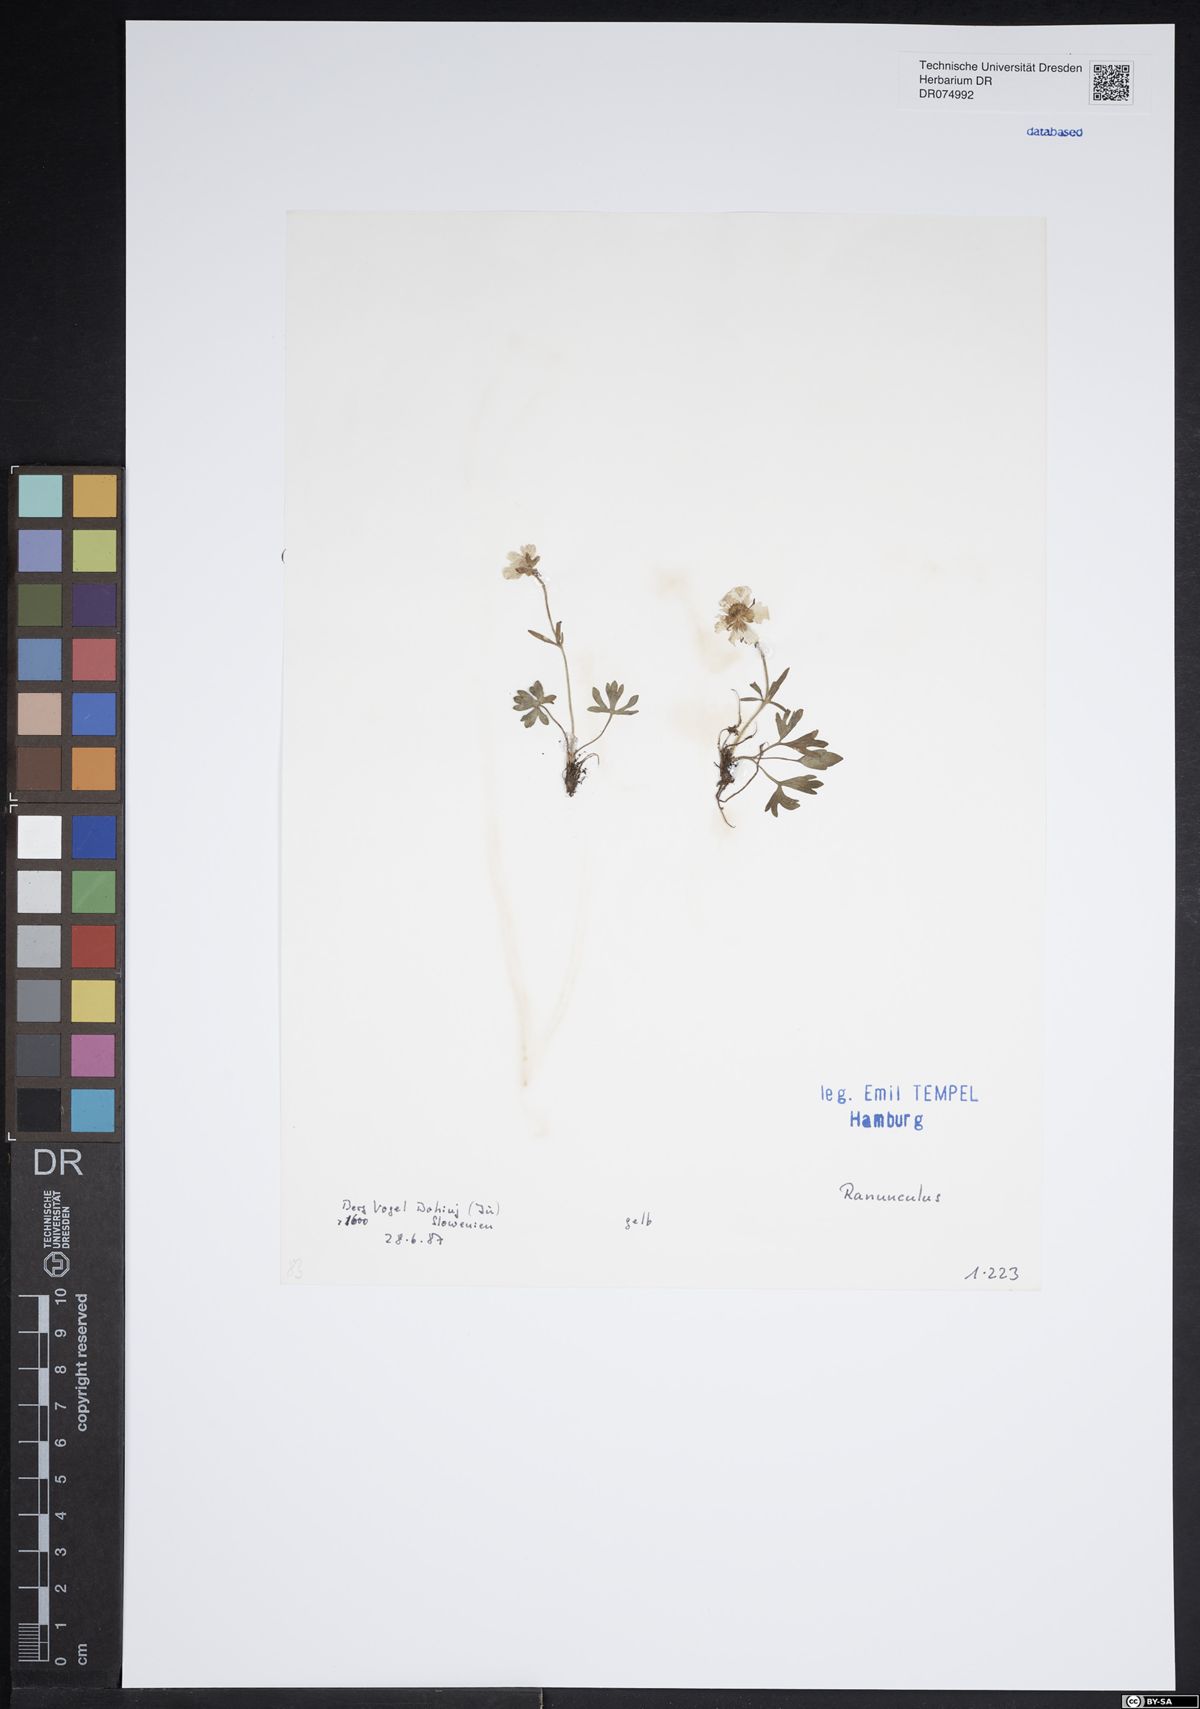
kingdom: Plantae
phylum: Tracheophyta
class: Magnoliopsida
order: Ranunculales
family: Ranunculaceae
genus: Ranunculus
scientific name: Ranunculus
